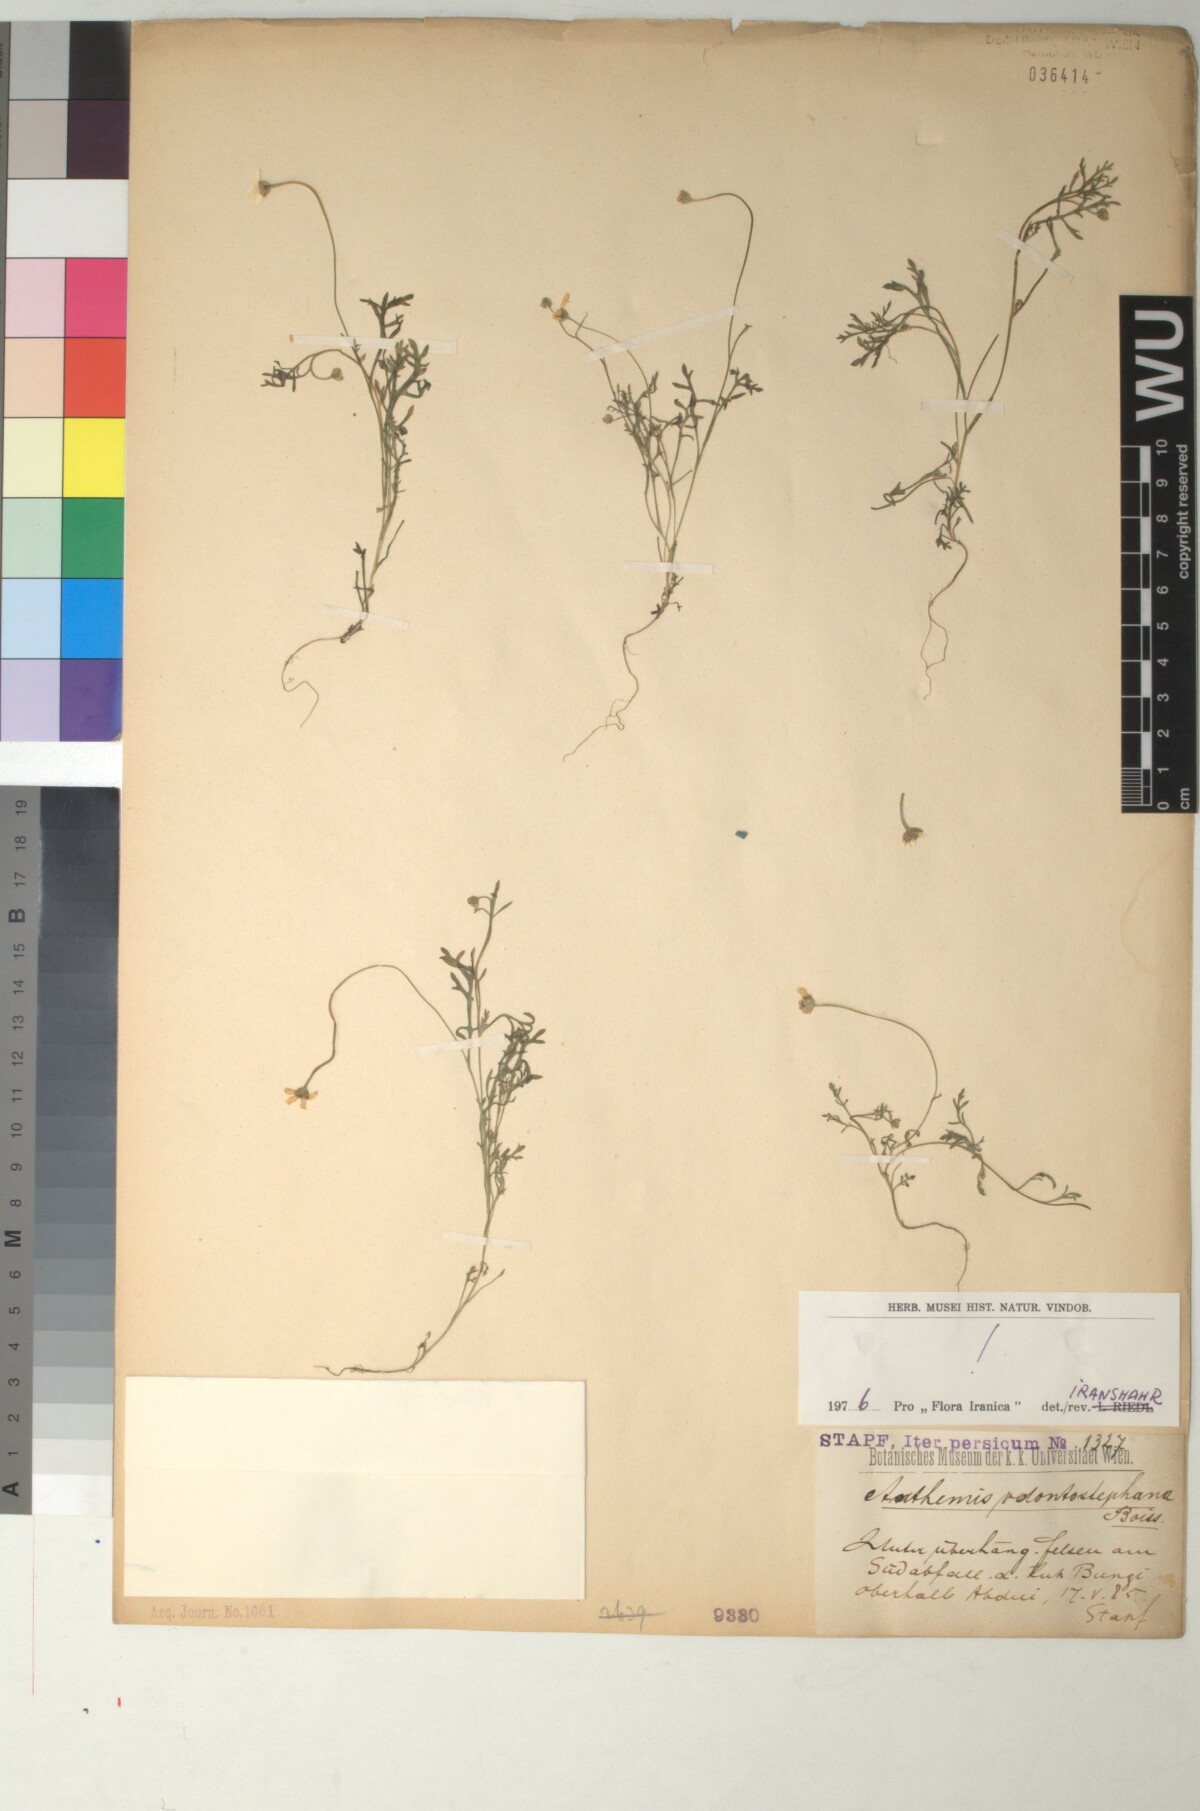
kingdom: Plantae
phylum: Tracheophyta
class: Magnoliopsida
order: Asterales
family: Asteraceae
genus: Anthemis
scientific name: Anthemis odontostephana
